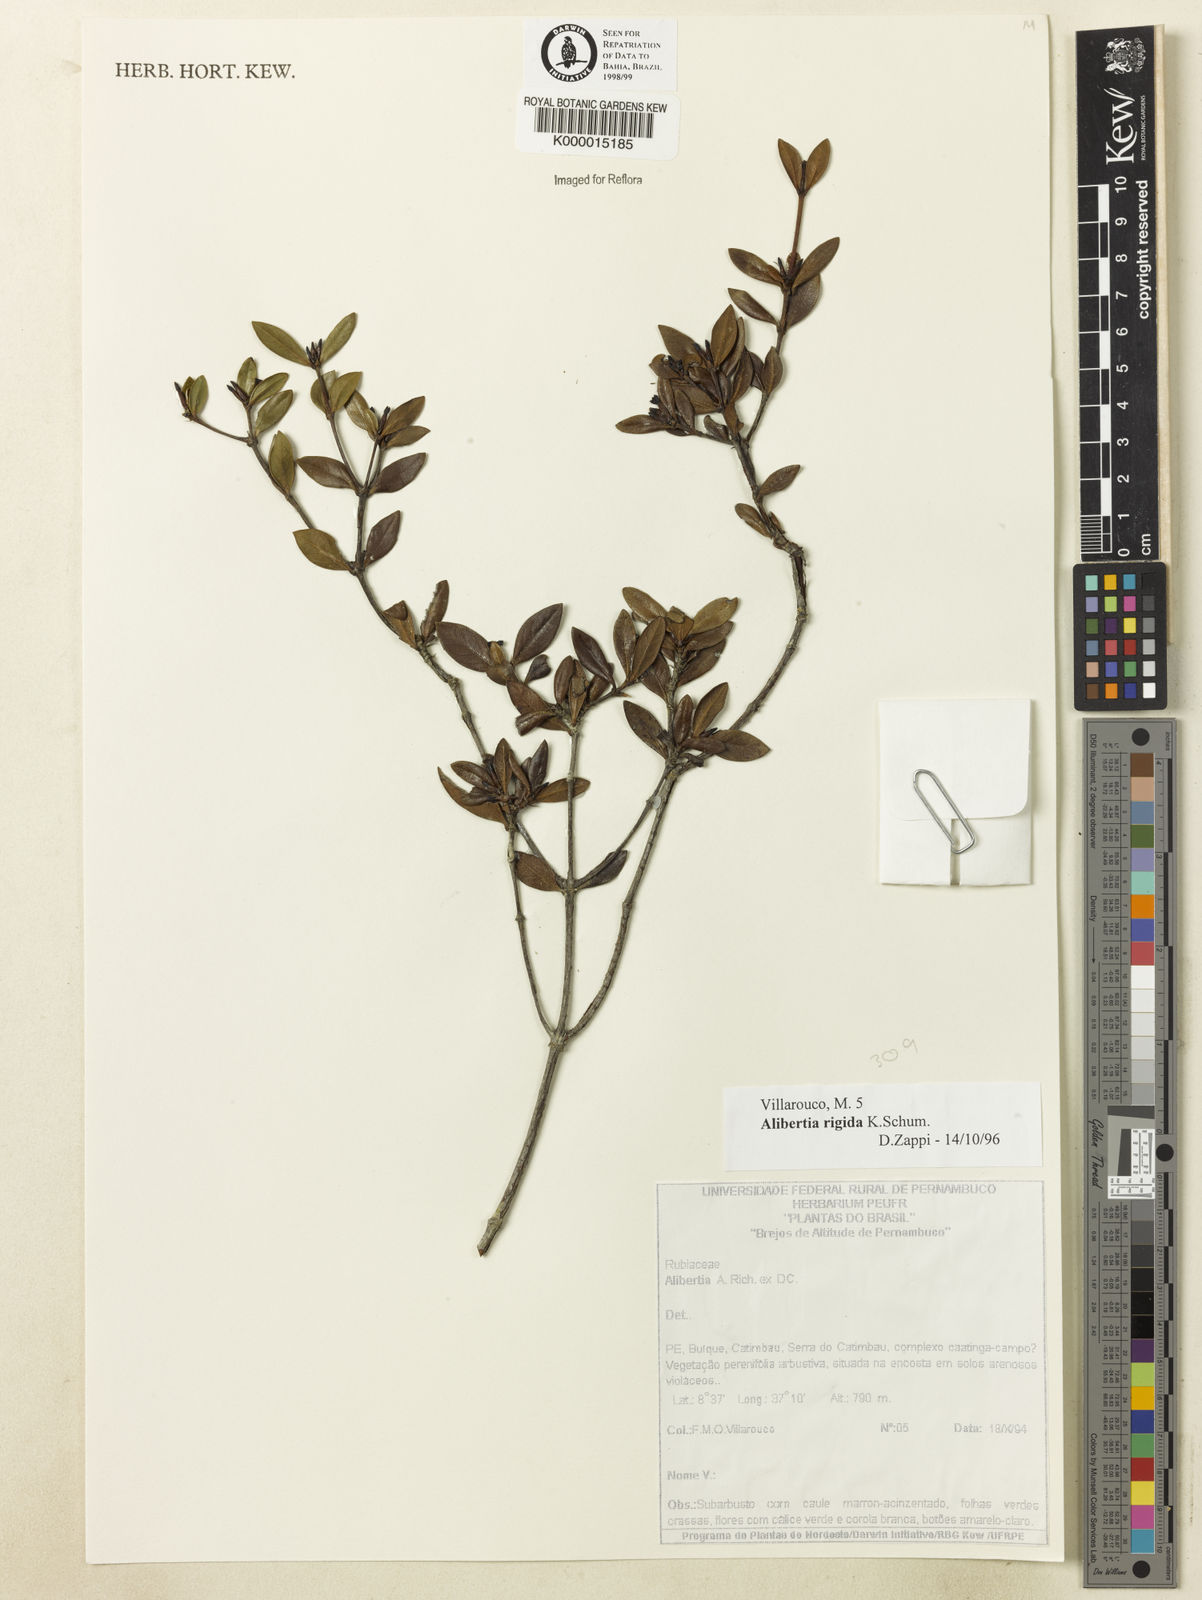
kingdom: Plantae
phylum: Tracheophyta
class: Magnoliopsida
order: Gentianales
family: Rubiaceae
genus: Cordiera
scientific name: Cordiera rigida
